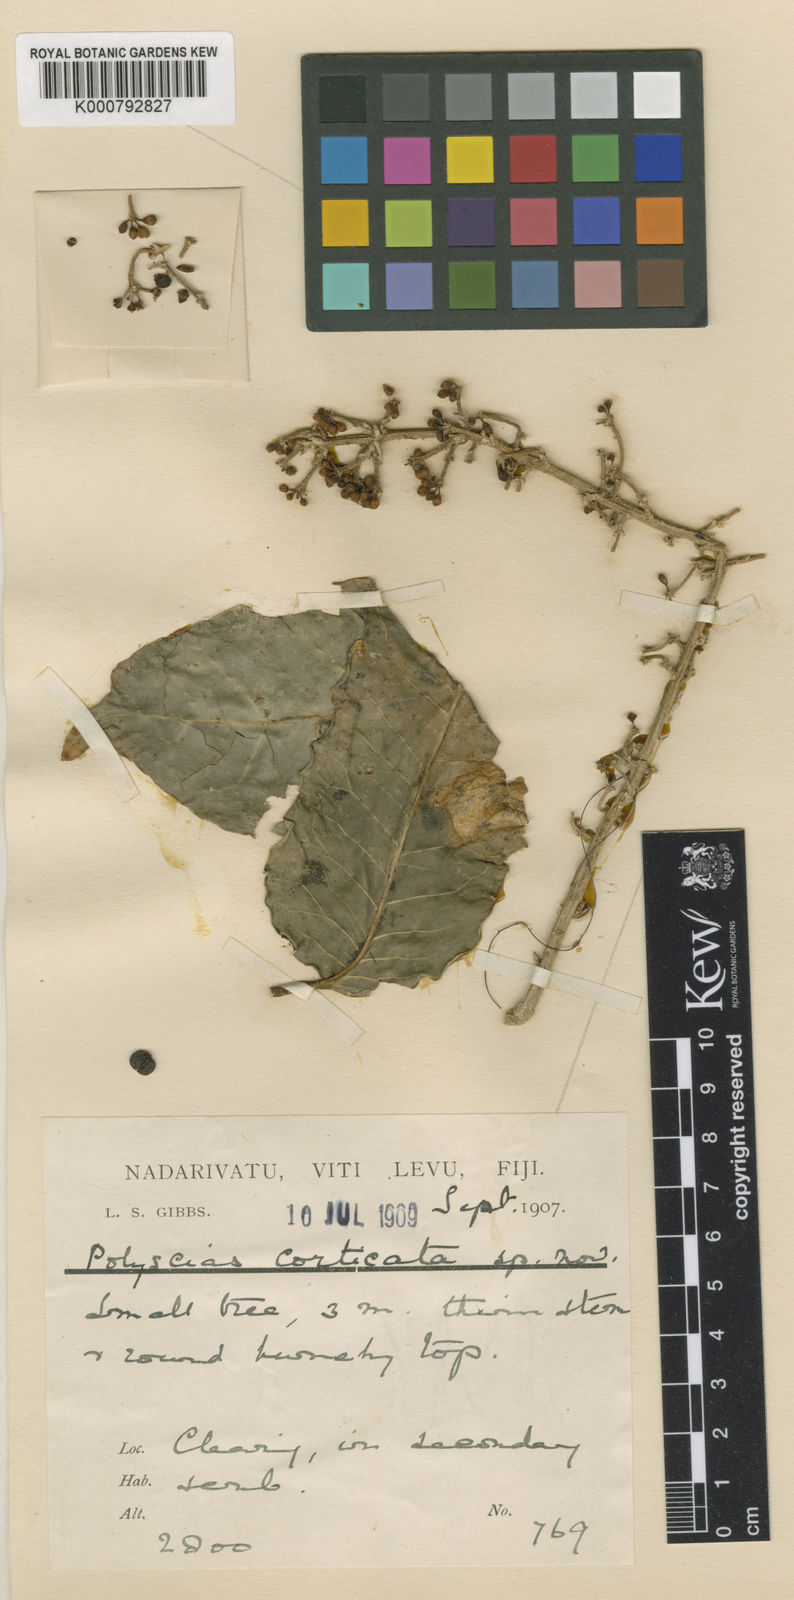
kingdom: Plantae
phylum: Tracheophyta
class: Magnoliopsida
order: Apiales
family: Araliaceae
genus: Polyscias
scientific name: Polyscias corticata
